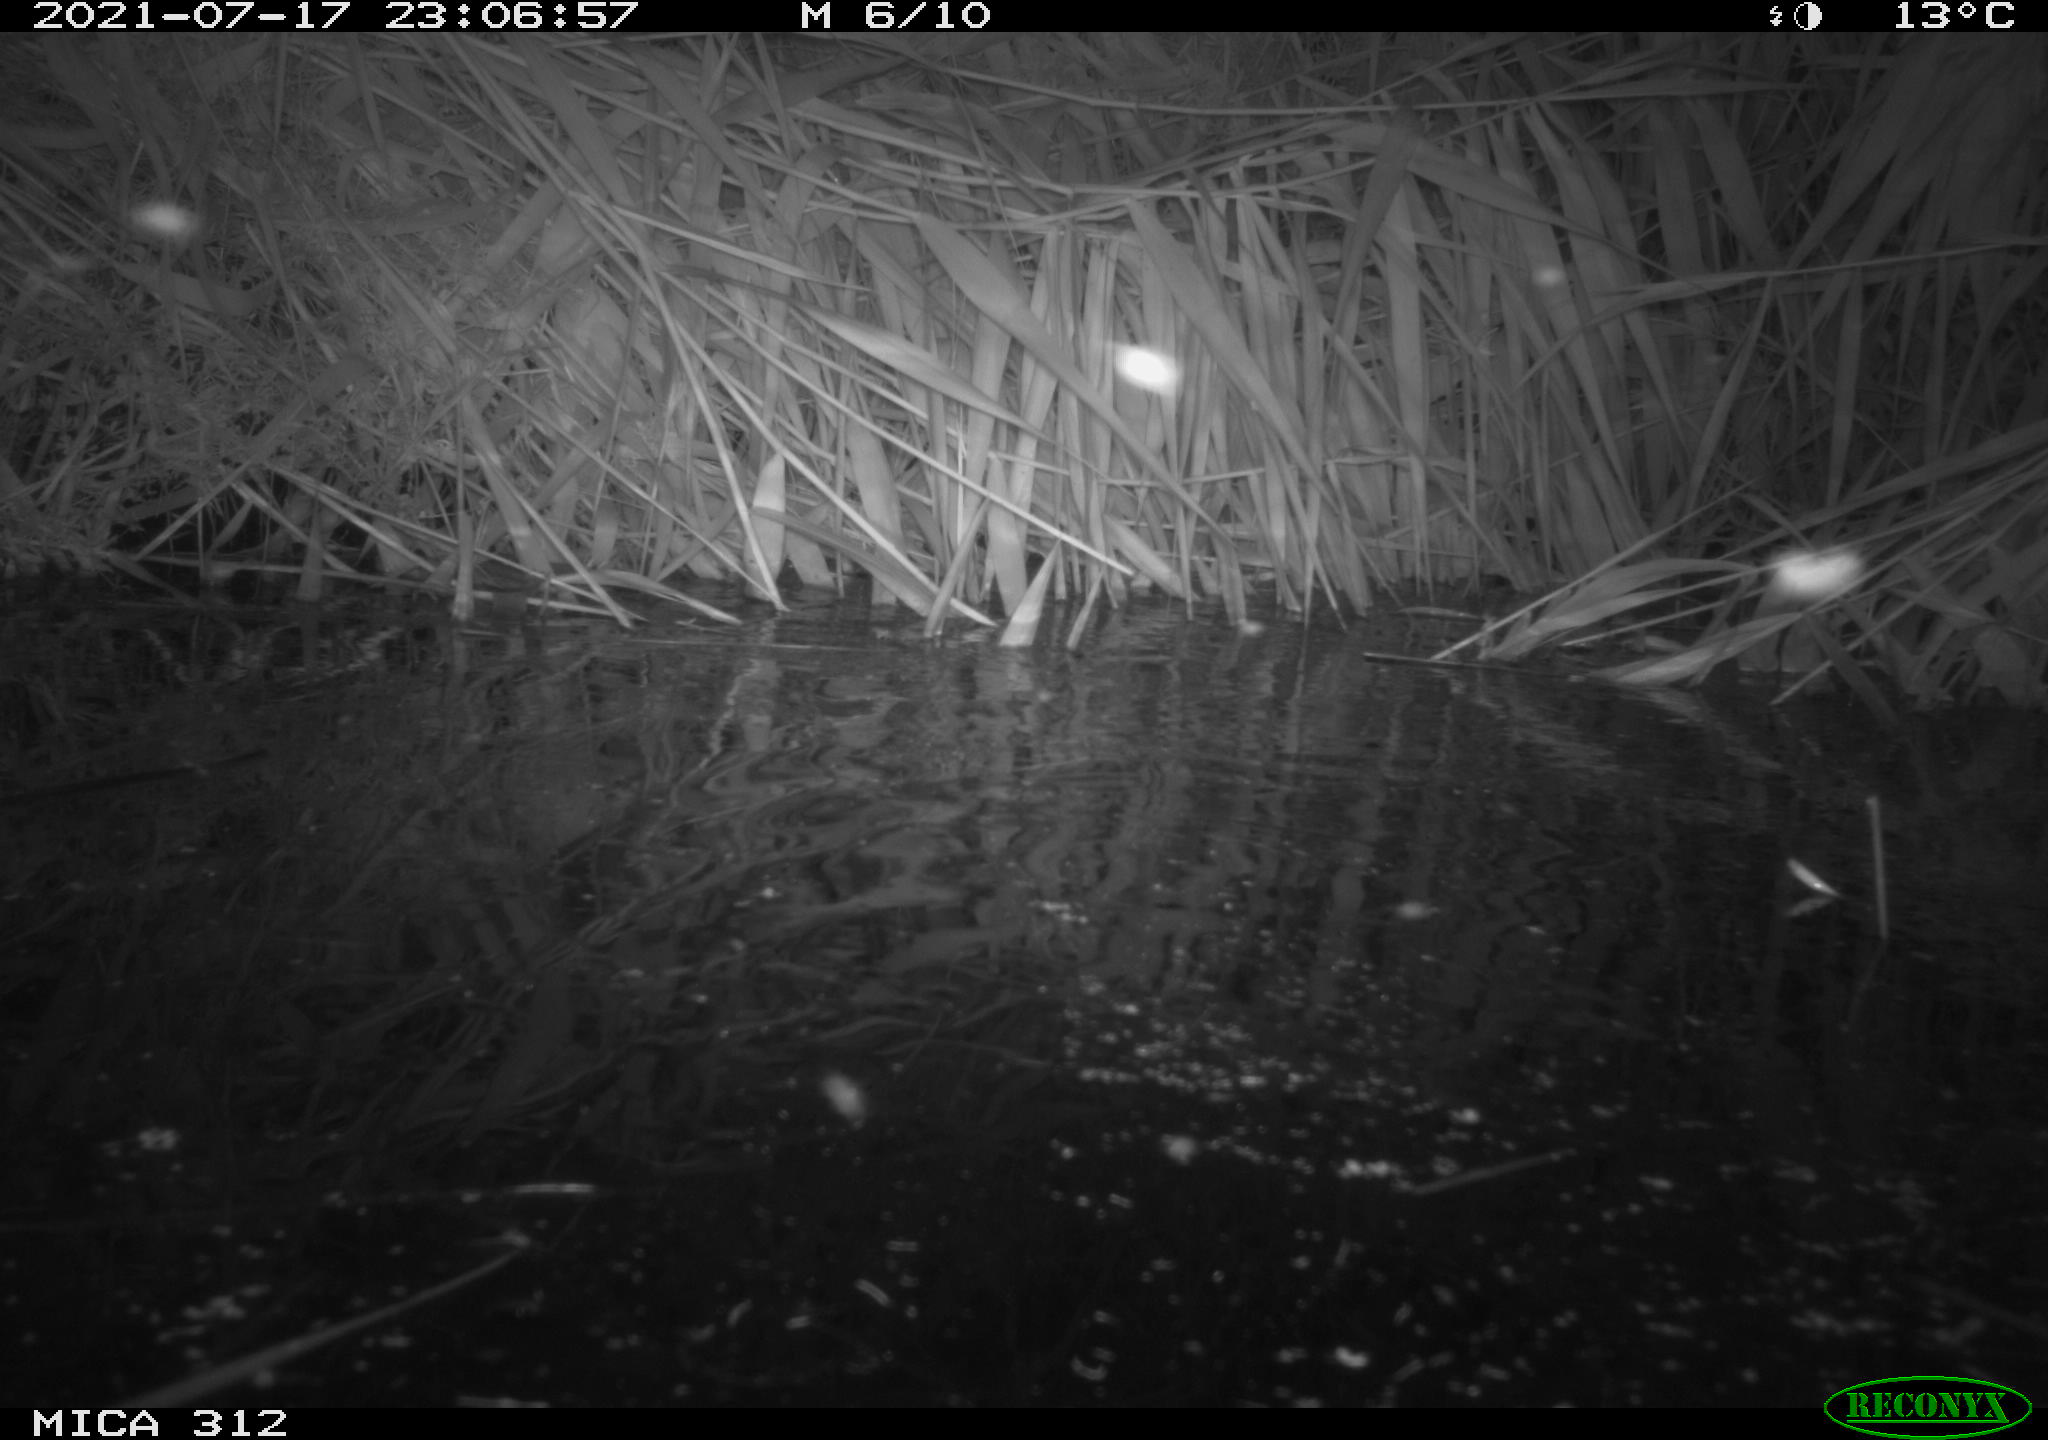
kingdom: Animalia
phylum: Chordata
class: Mammalia
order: Rodentia
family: Muridae
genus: Rattus
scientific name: Rattus norvegicus
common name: Brown rat
